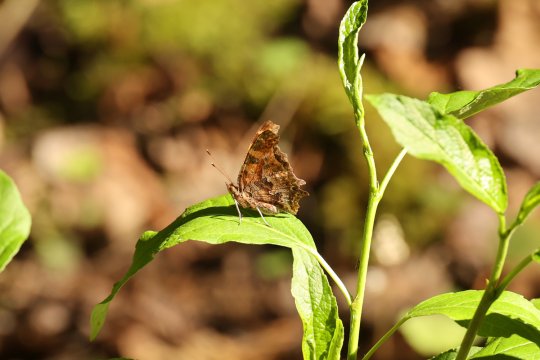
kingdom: Animalia
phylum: Arthropoda
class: Insecta
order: Lepidoptera
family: Nymphalidae
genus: Polygonia
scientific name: Polygonia comma
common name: Eastern Comma
